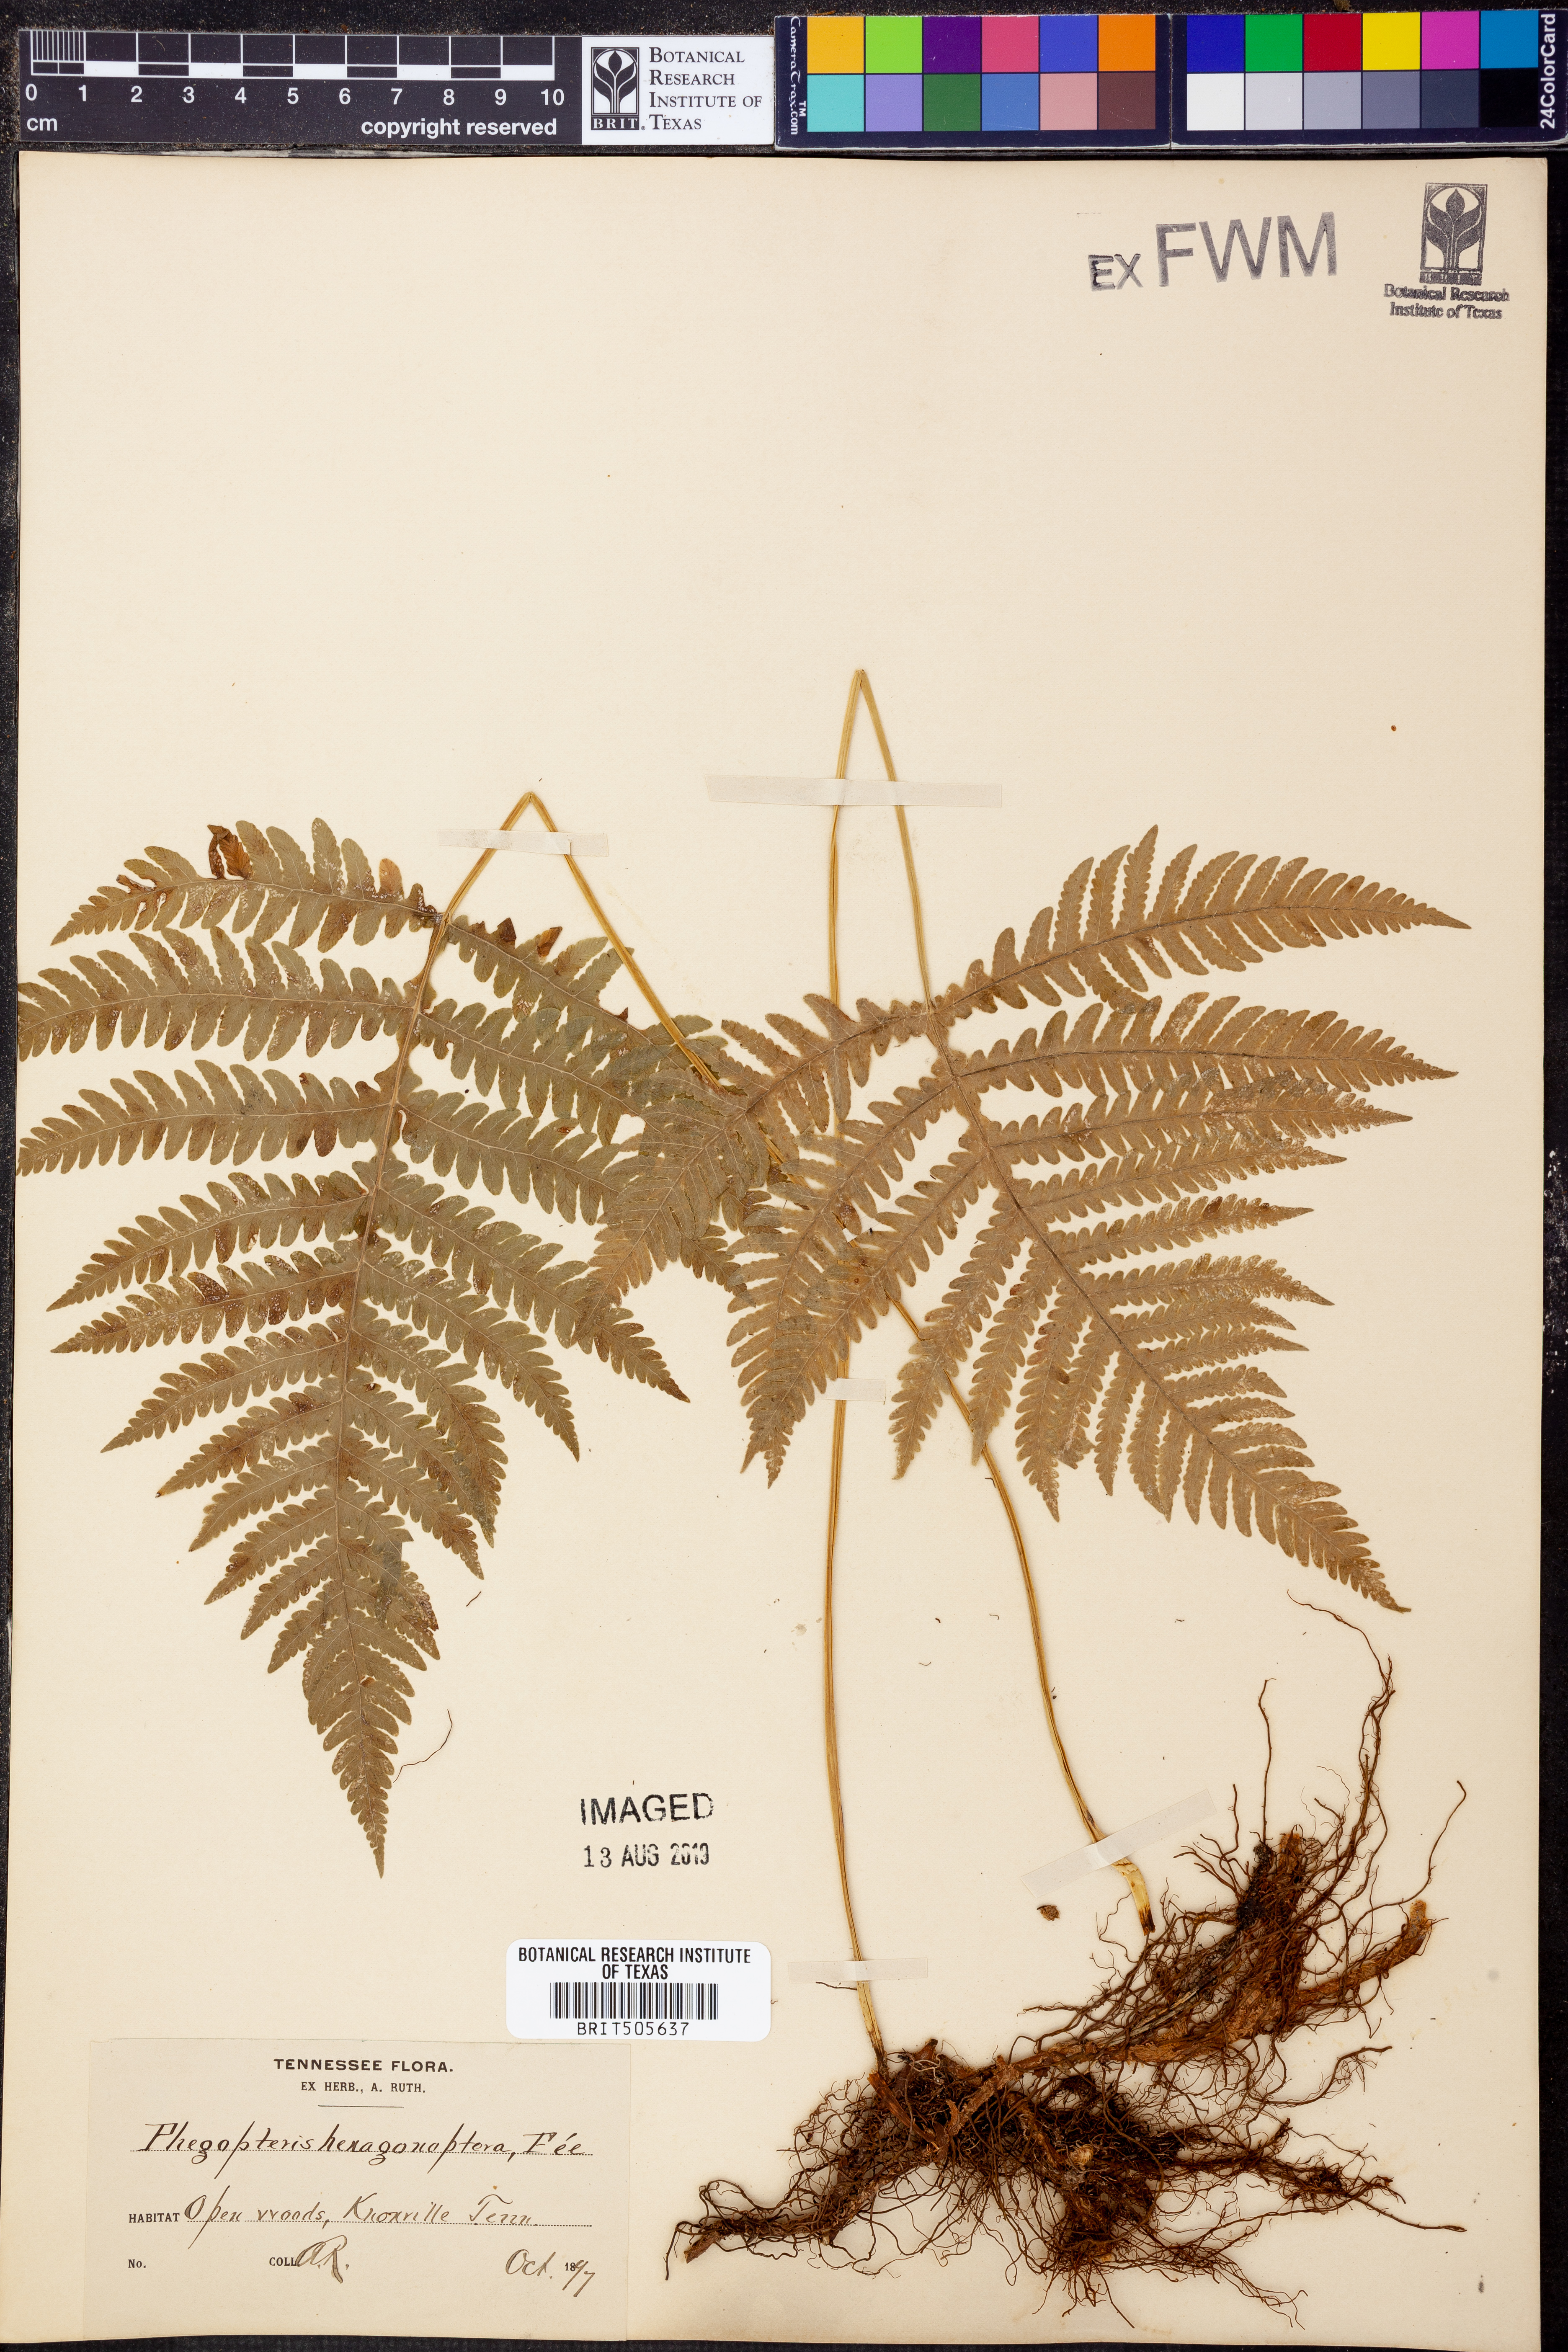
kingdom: Plantae
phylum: Tracheophyta
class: Polypodiopsida
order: Polypodiales
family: Thelypteridaceae
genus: Phegopteris
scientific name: Phegopteris hexagonoptera
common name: Broad beech fern
